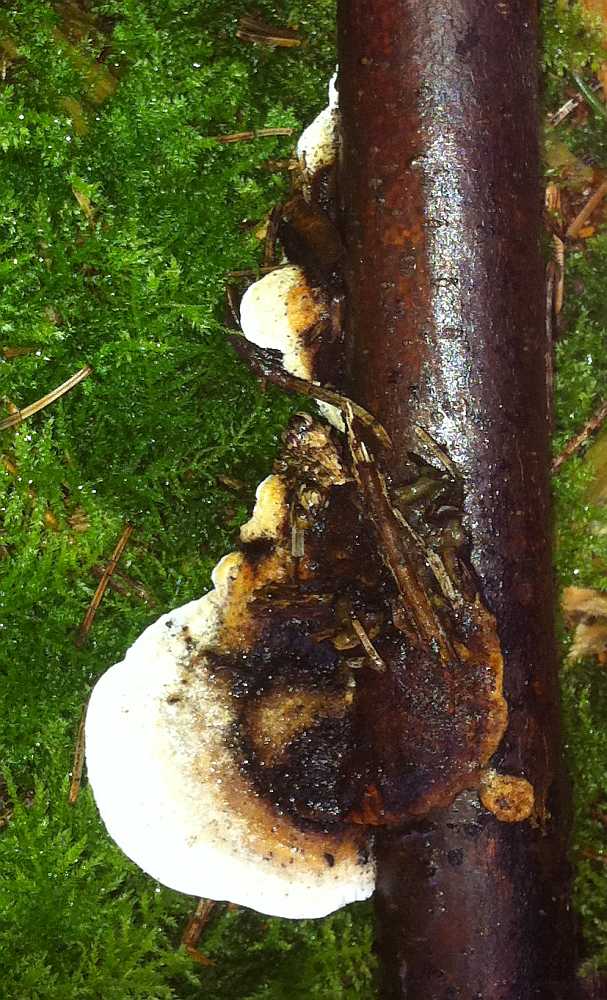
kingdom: Fungi
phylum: Basidiomycota
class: Agaricomycetes
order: Polyporales
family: Incrustoporiaceae
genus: Skeletocutis
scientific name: Skeletocutis nemoralis
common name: stor krystalporesvamp
